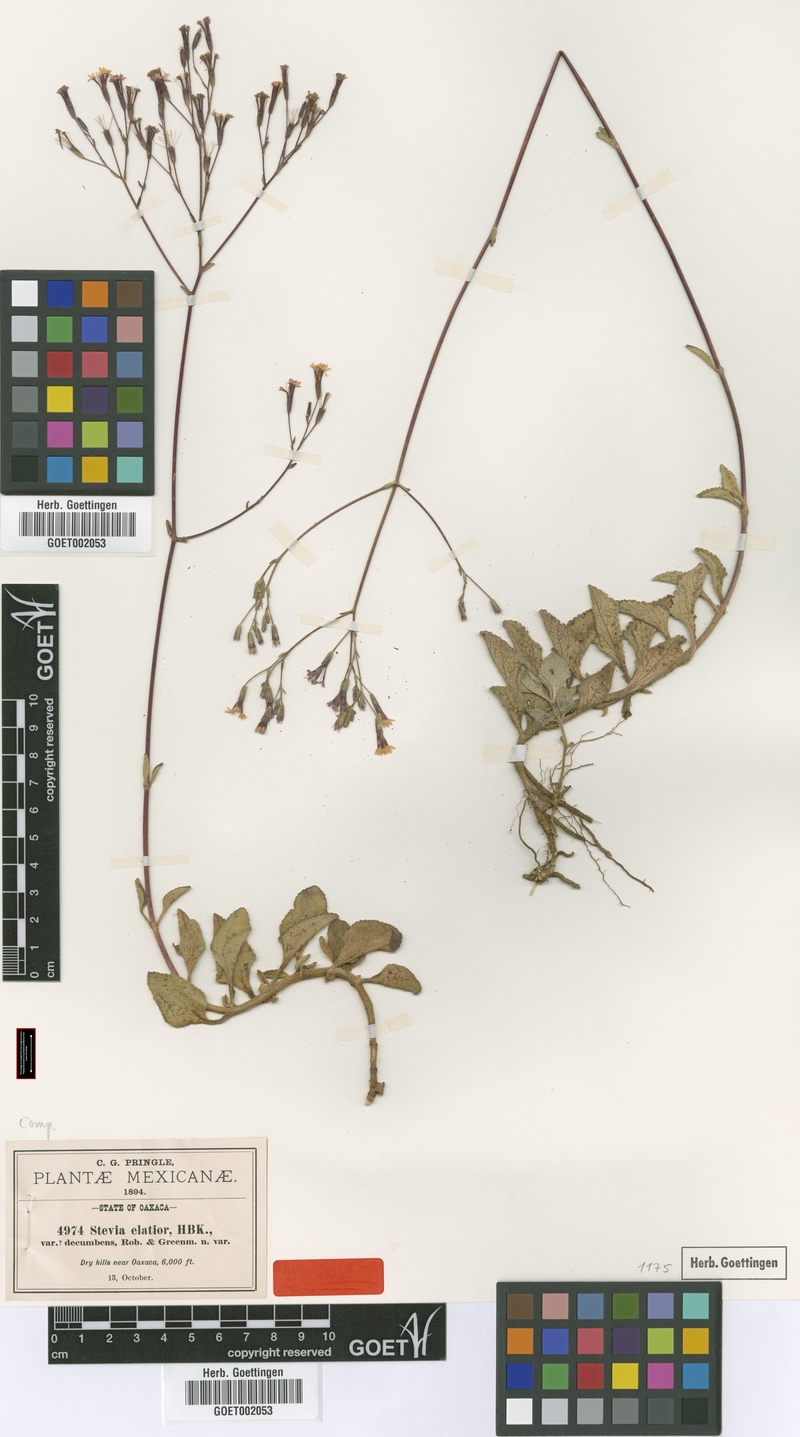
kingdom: Plantae
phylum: Tracheophyta
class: Magnoliopsida
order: Asterales
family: Asteraceae
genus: Stevia
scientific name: Stevia decumbens
